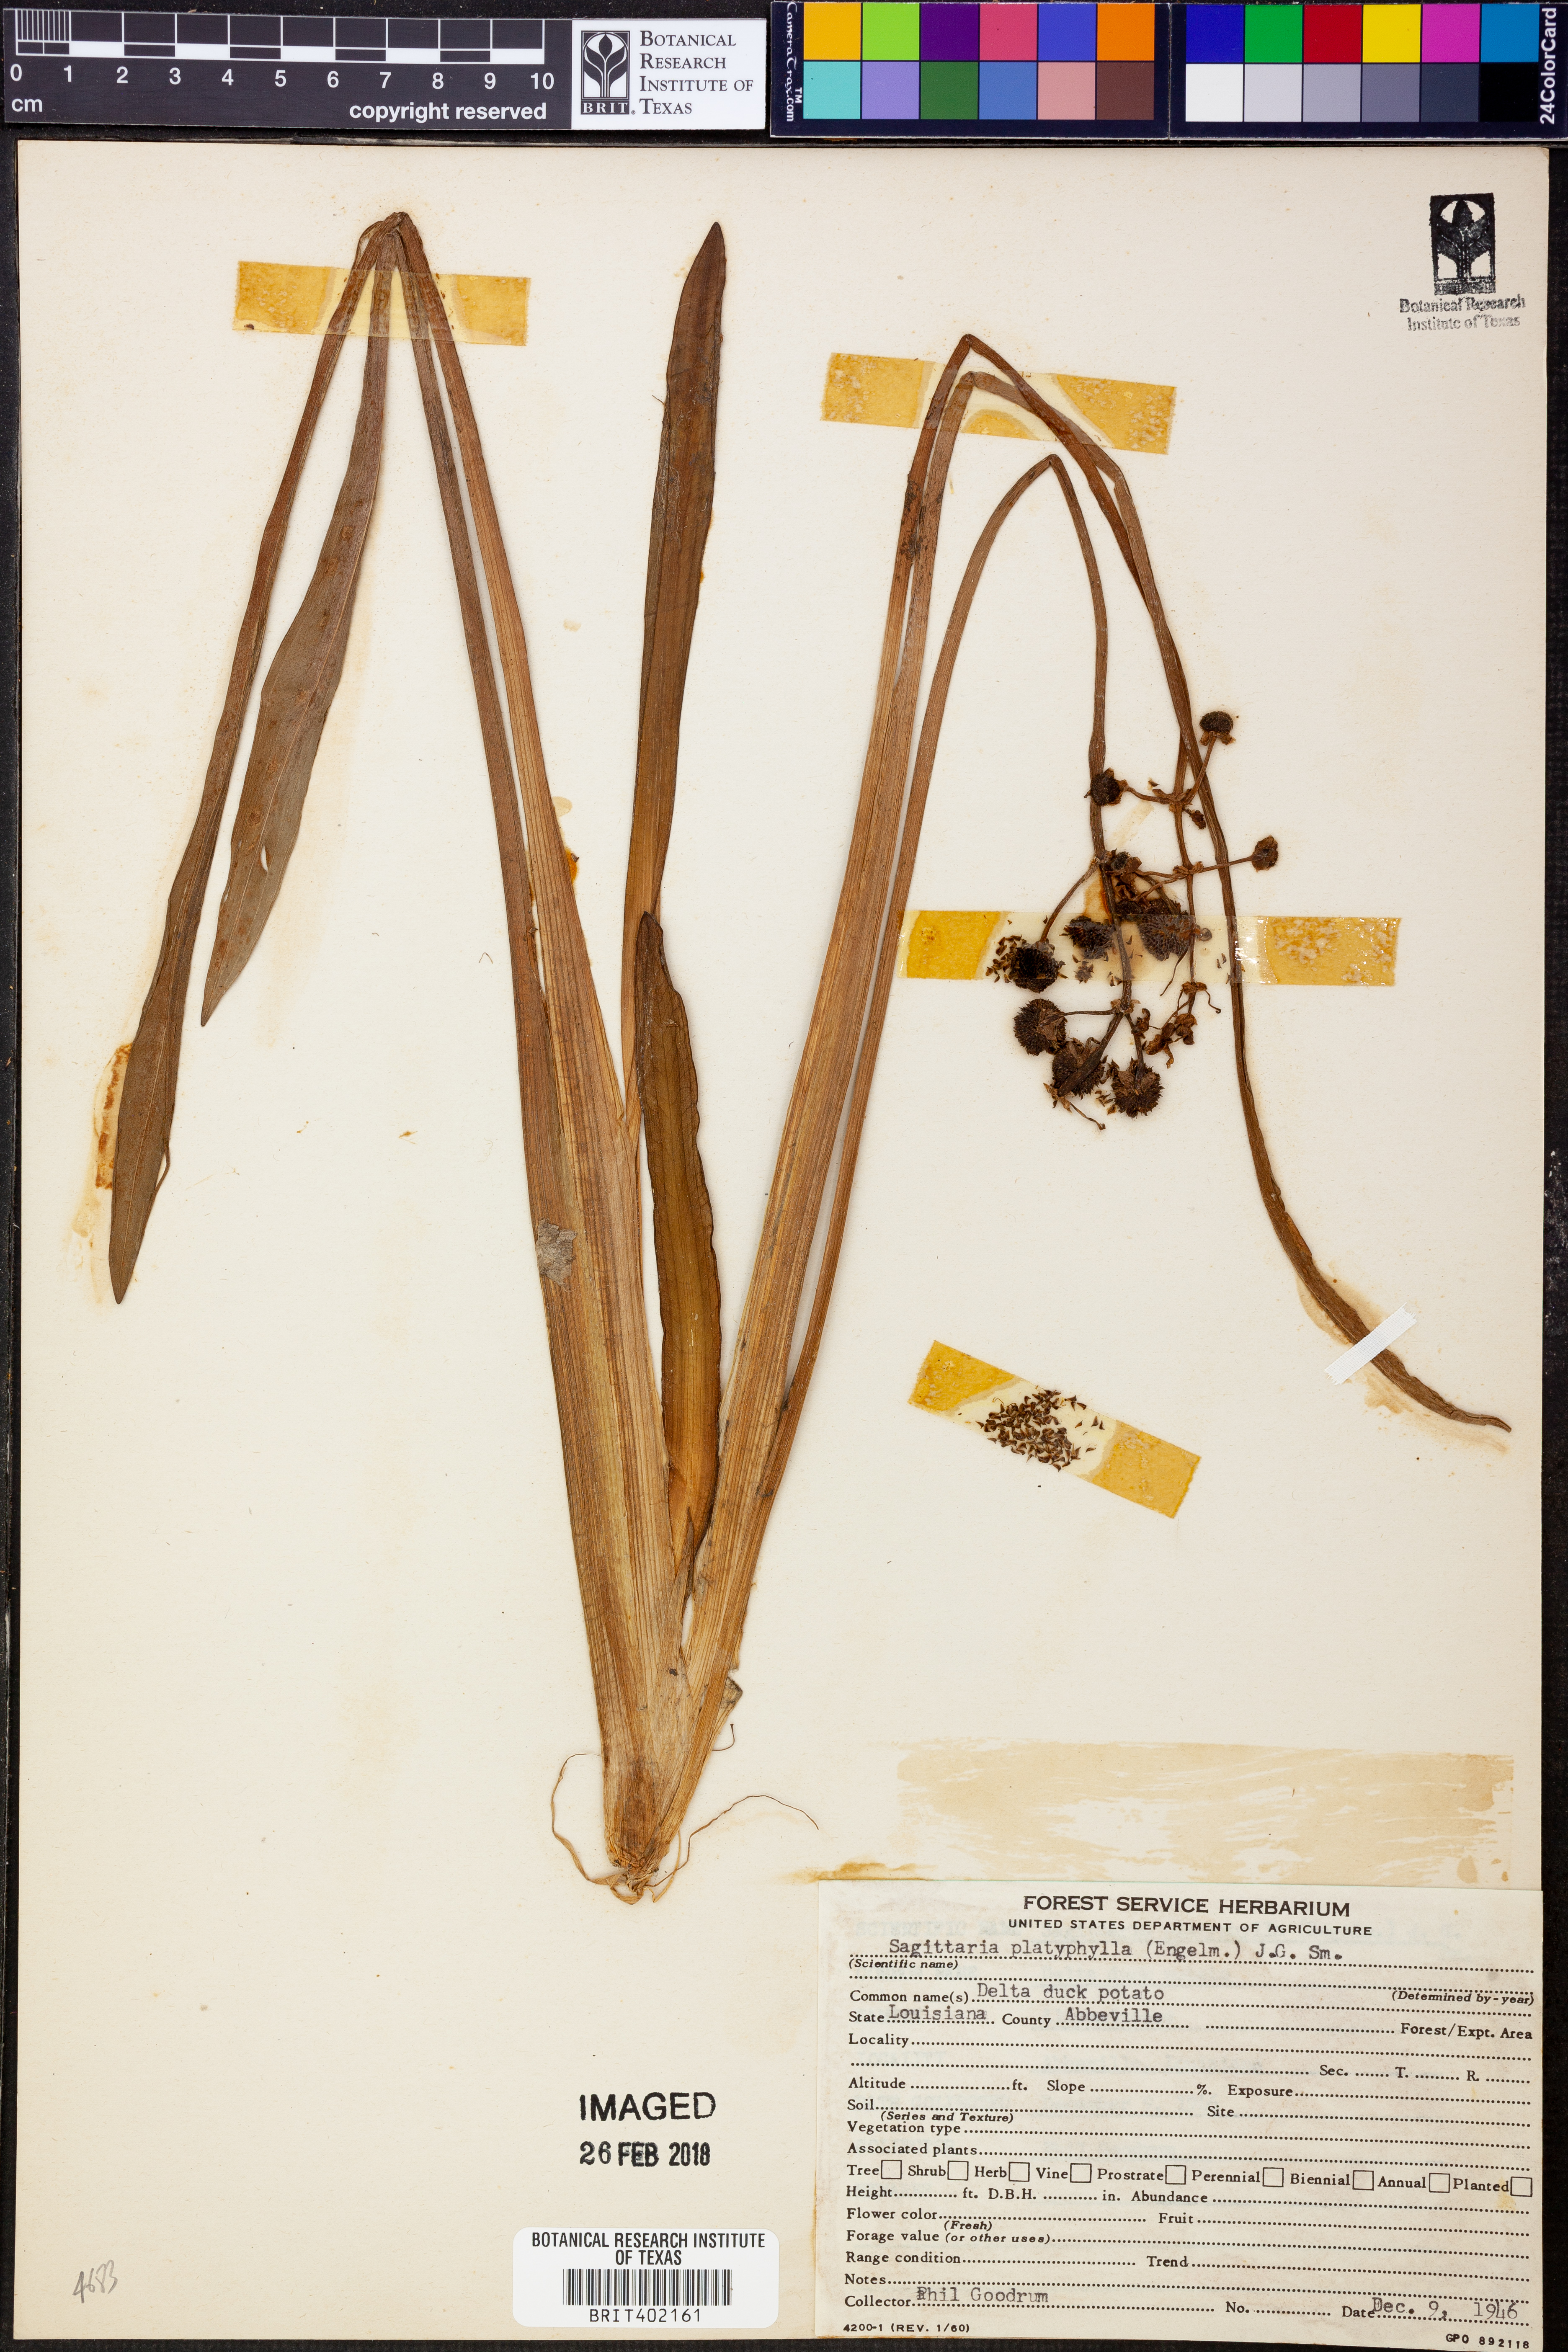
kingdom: Plantae
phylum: Tracheophyta
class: Liliopsida
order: Alismatales
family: Alismataceae
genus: Sagittaria
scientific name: Sagittaria platyphylla
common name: Broad-leaf arrowhead
